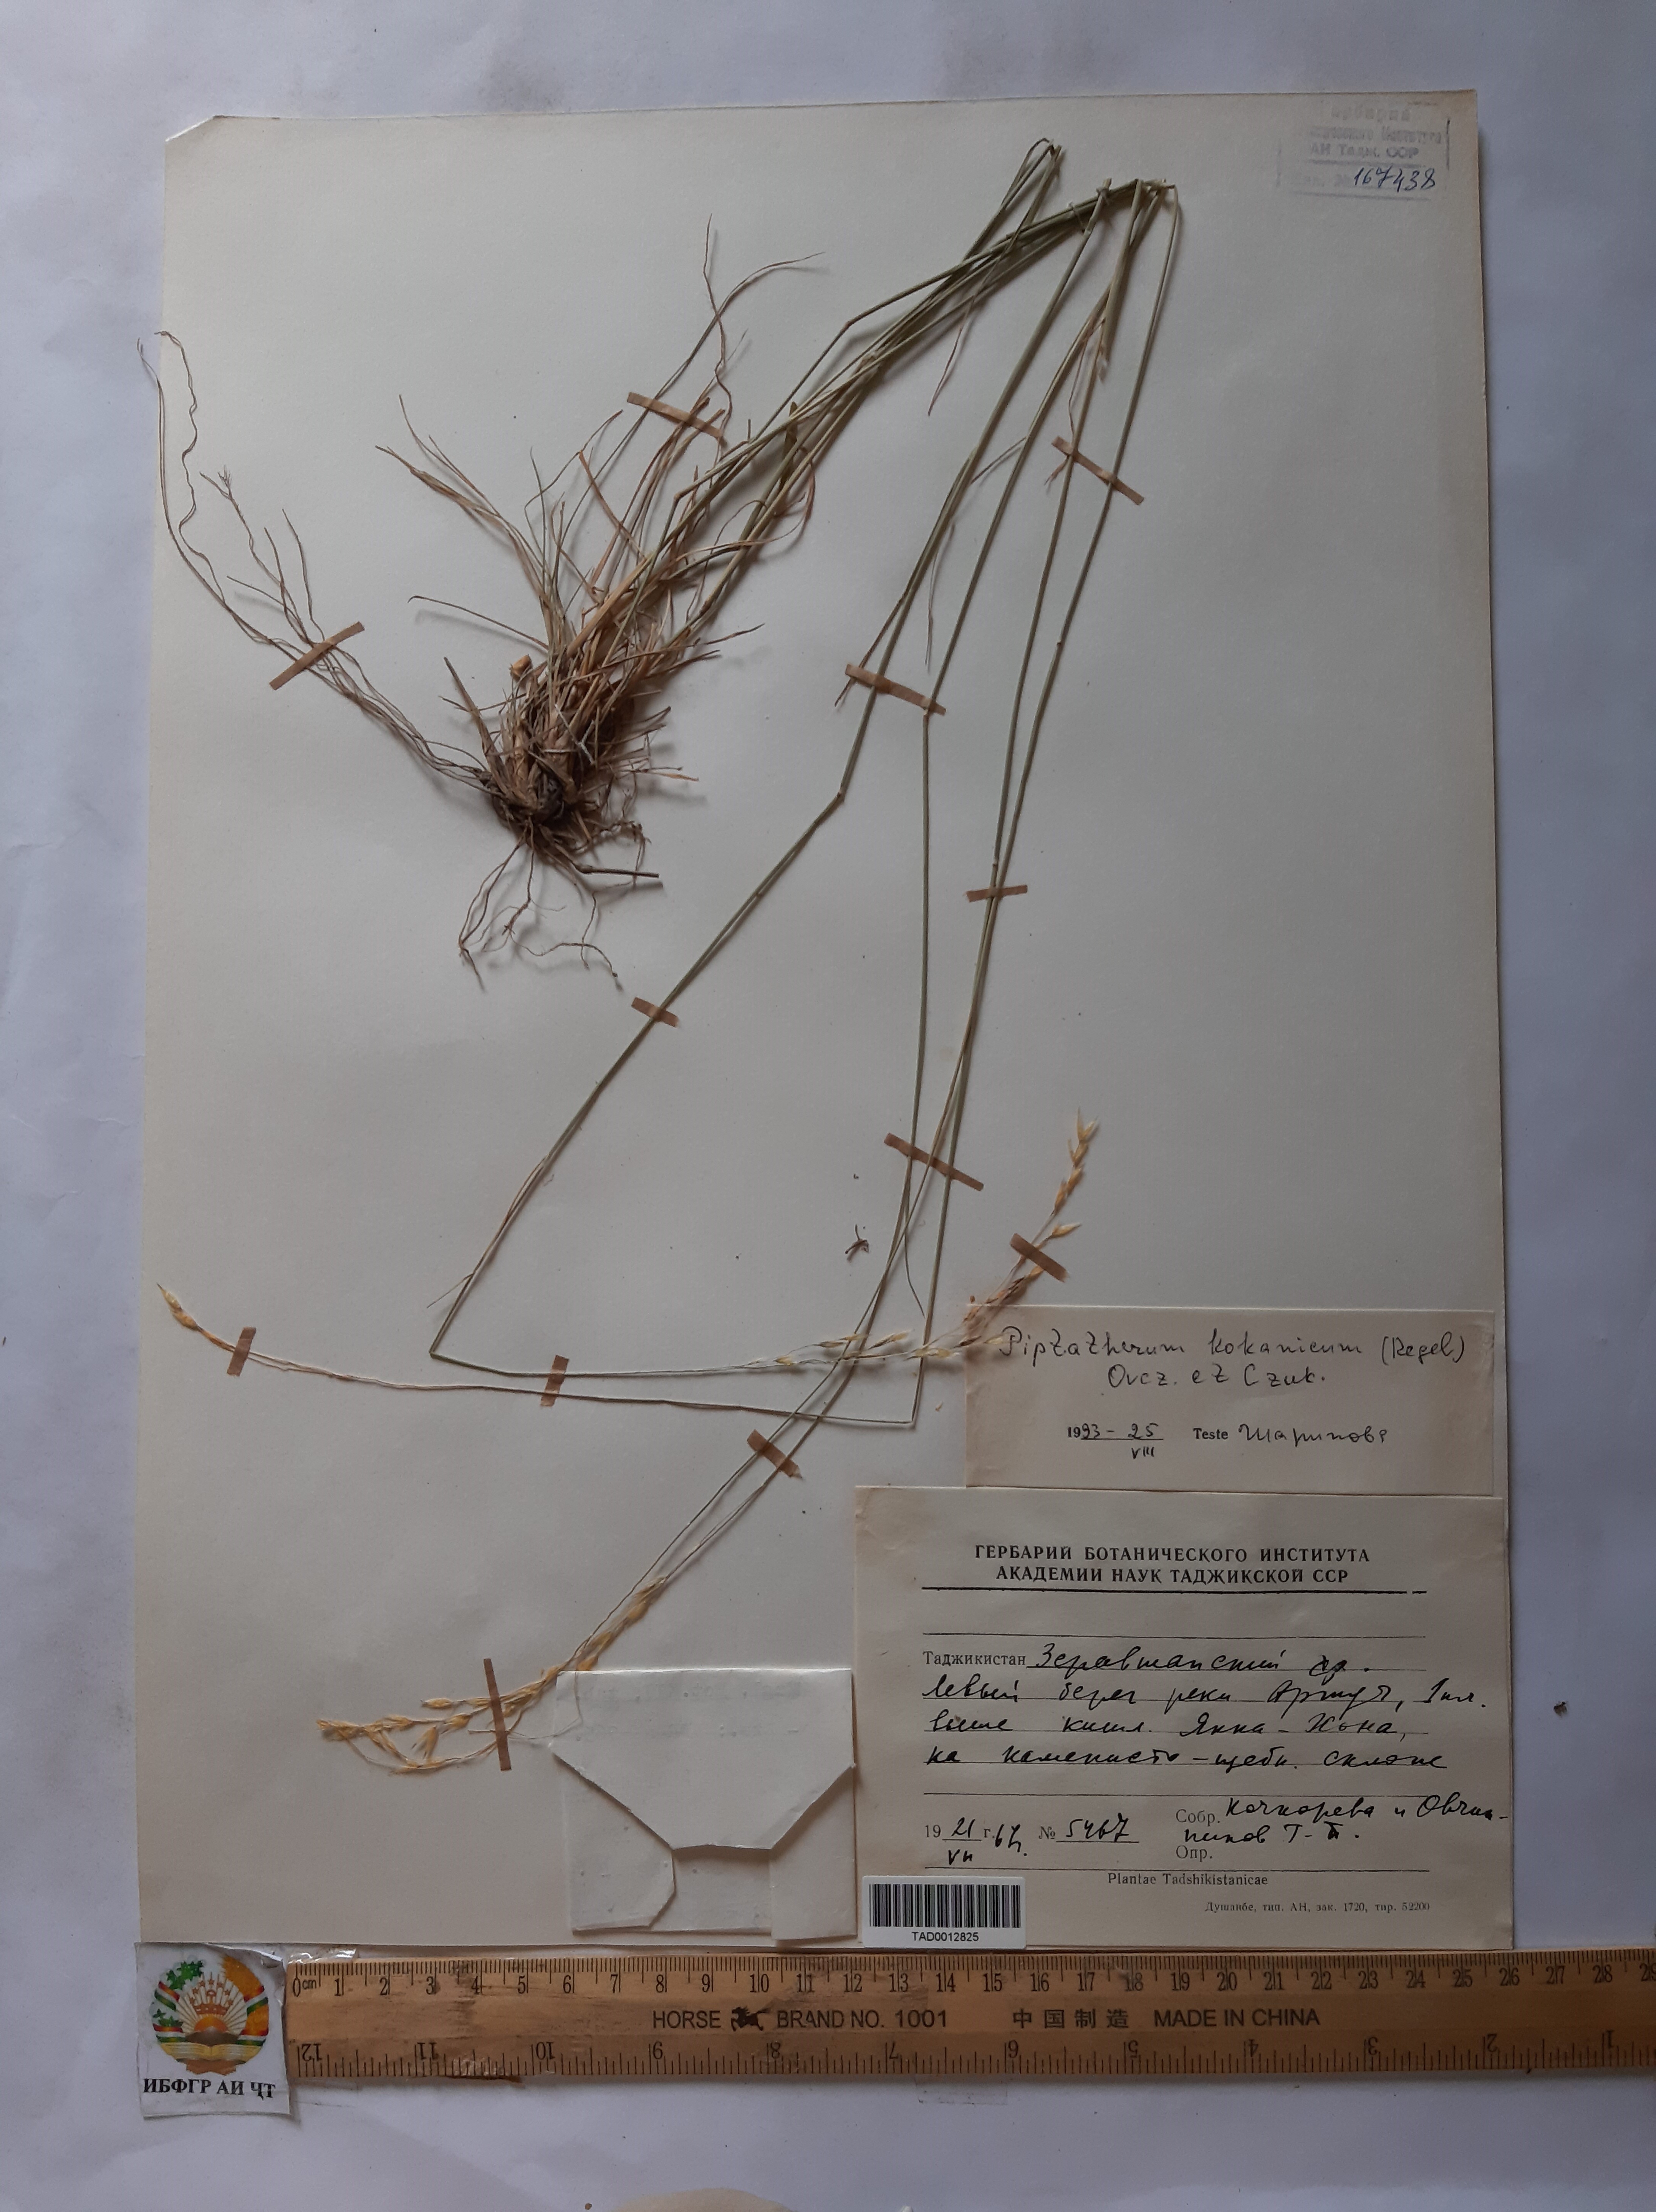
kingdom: Plantae
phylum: Tracheophyta
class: Liliopsida
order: Poales
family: Poaceae
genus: Piptatherum
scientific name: Piptatherum songaricum
